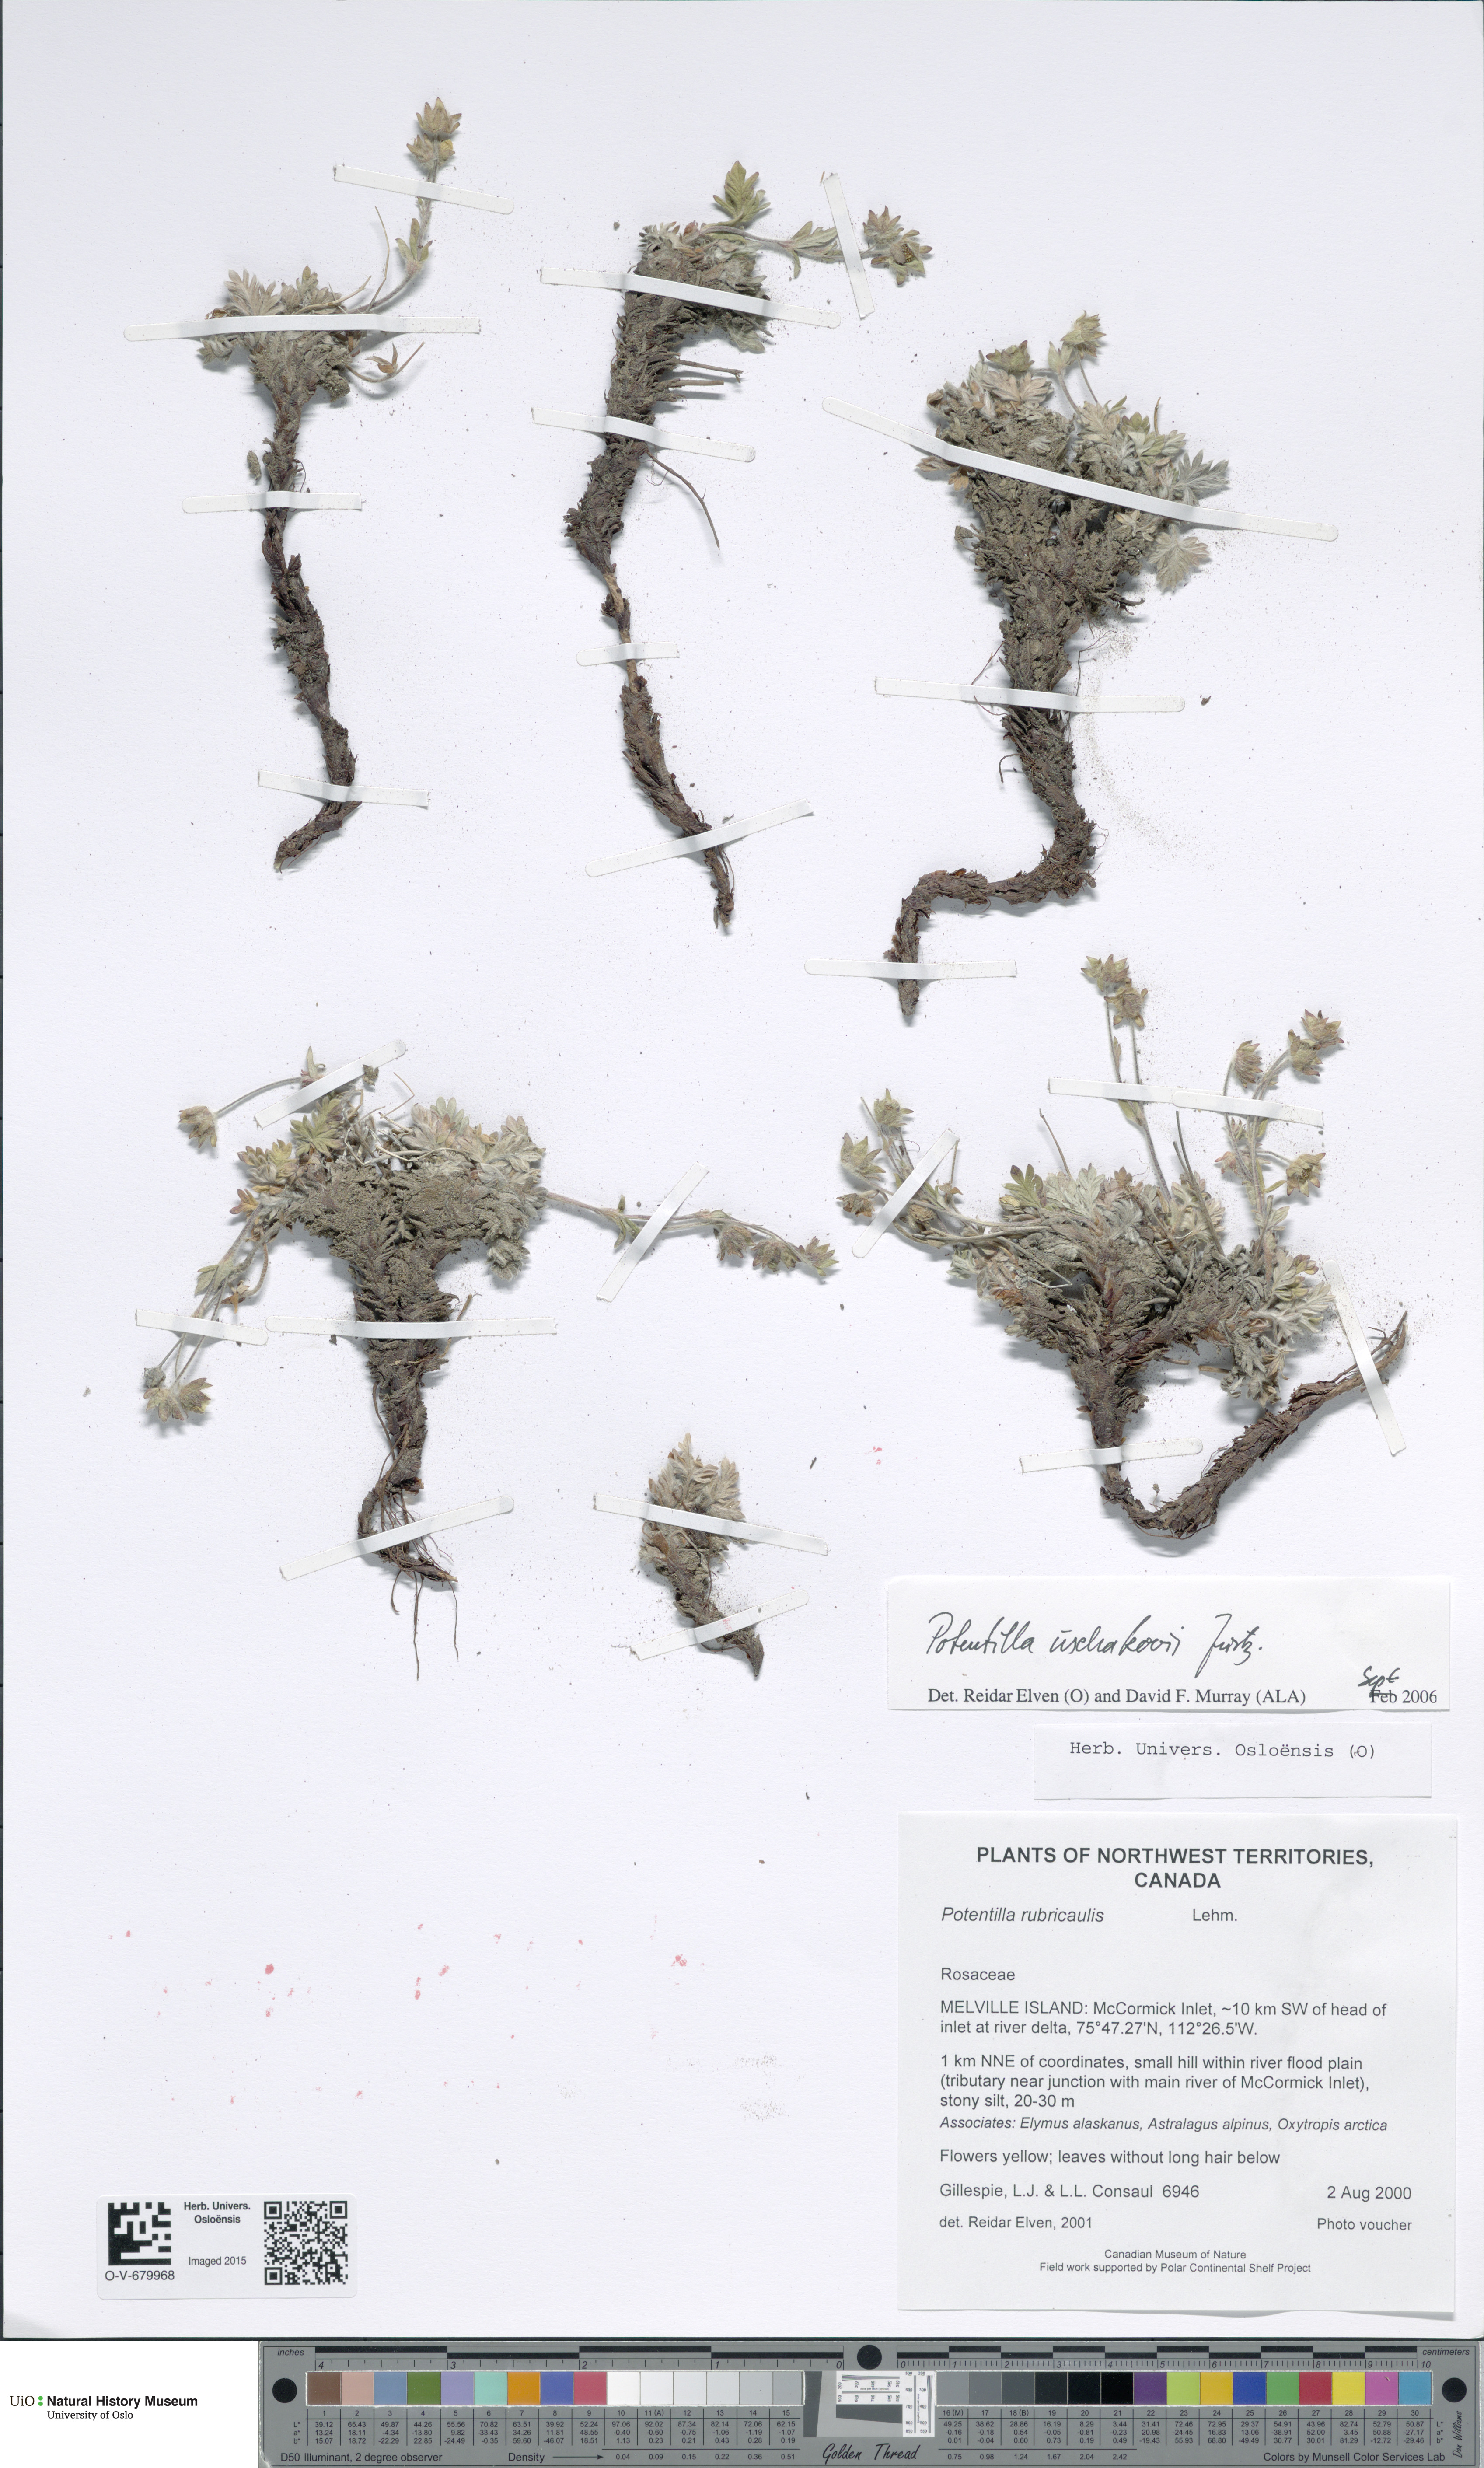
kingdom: Plantae
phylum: Tracheophyta
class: Magnoliopsida
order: Rosales
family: Rosaceae
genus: Potentilla
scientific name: Potentilla uschakovii
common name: Ushakov's cinquefoil
